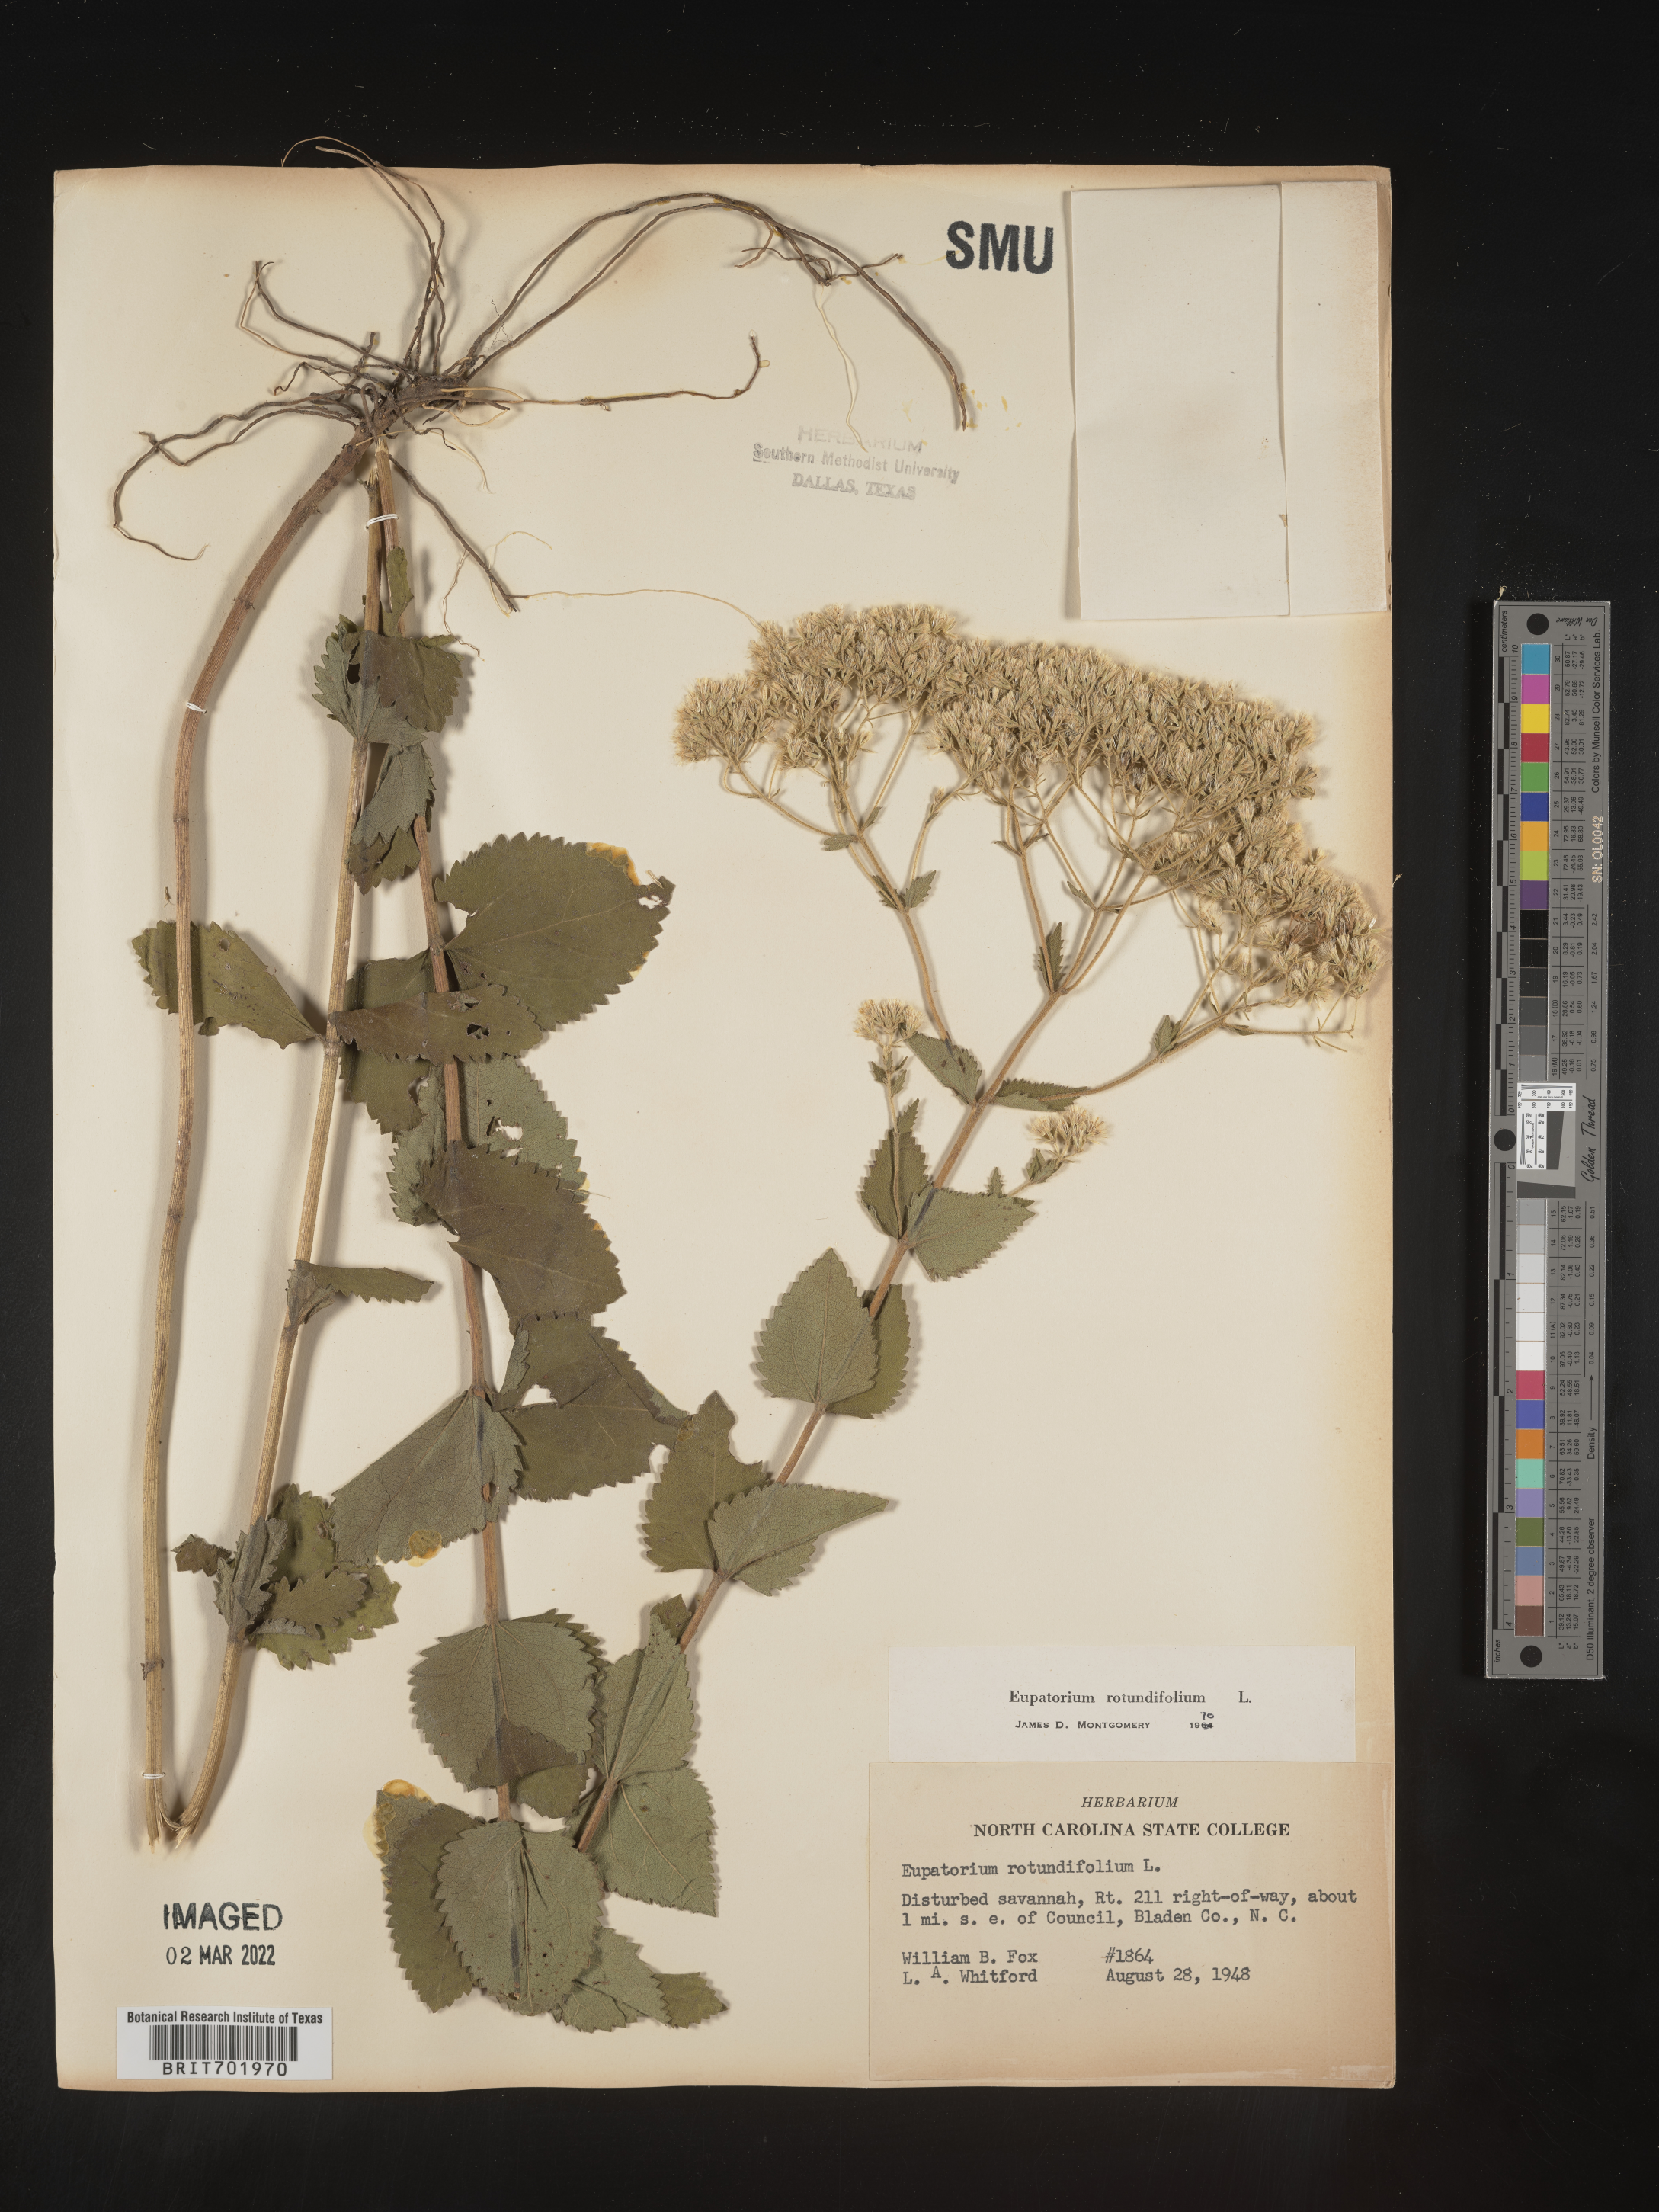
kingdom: Plantae
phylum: Tracheophyta
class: Magnoliopsida
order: Asterales
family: Asteraceae
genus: Eupatorium
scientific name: Eupatorium rotundifolium
